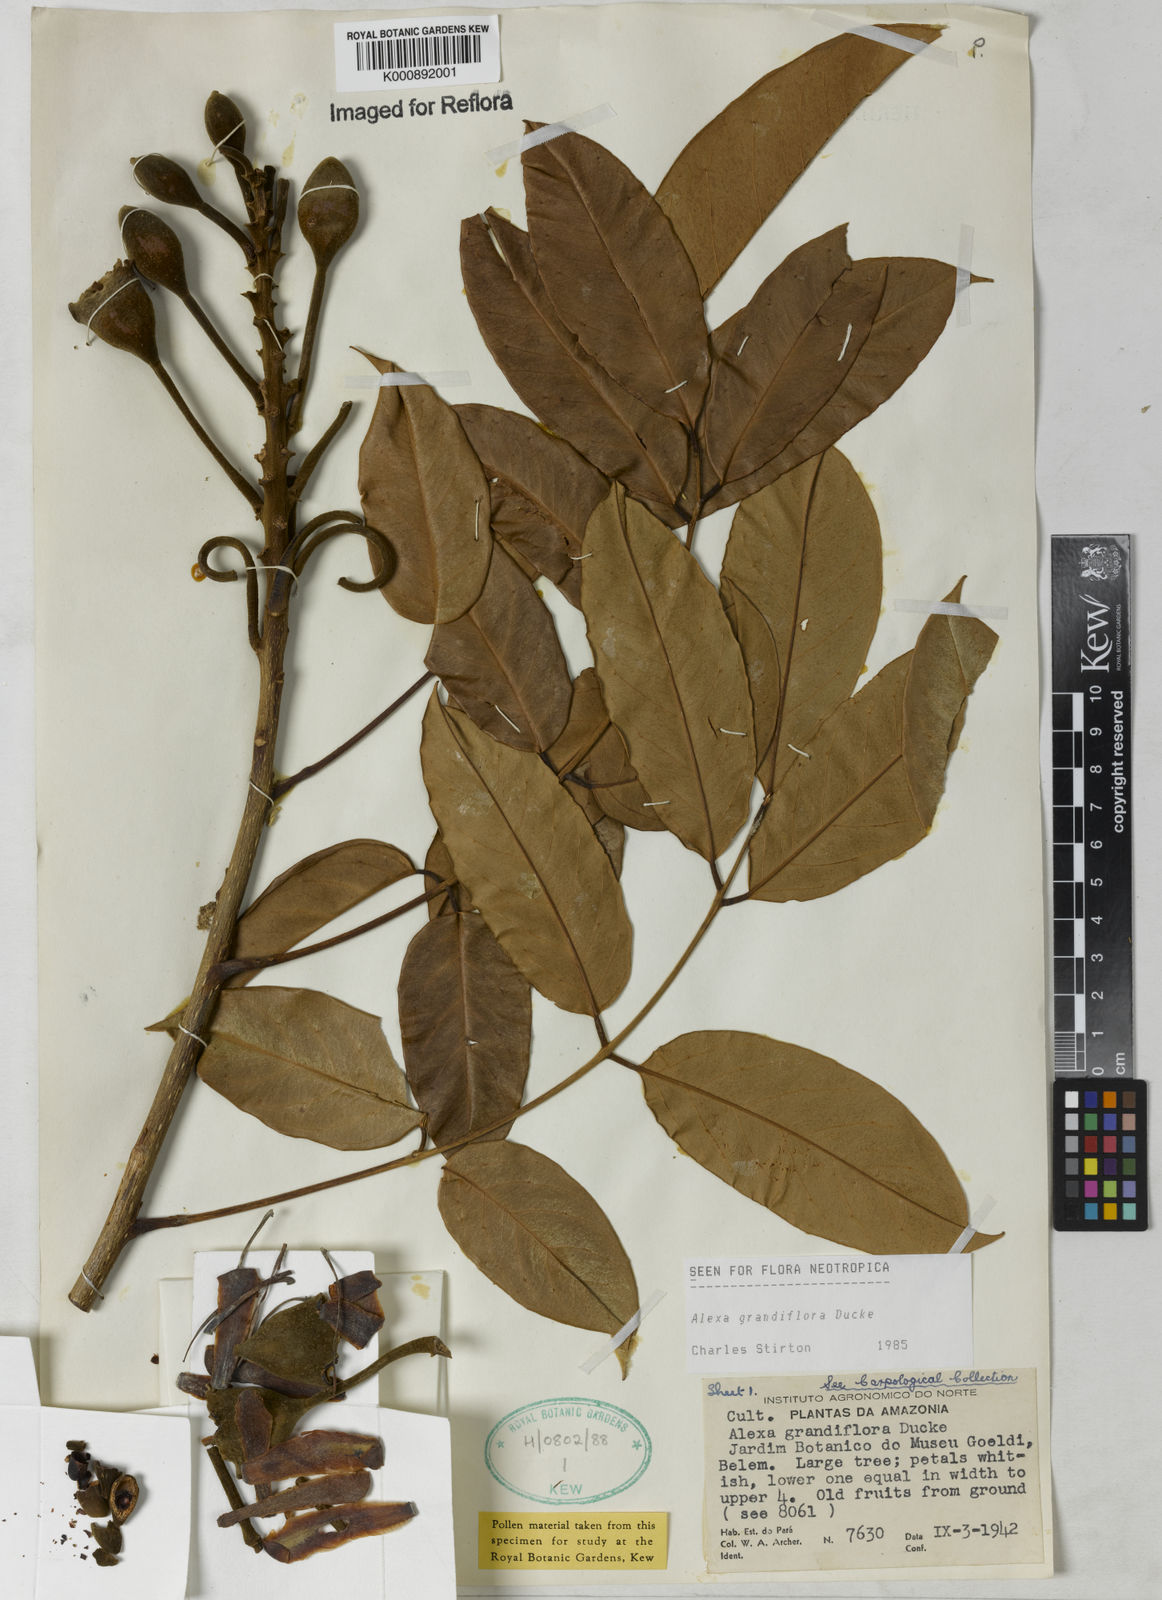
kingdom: Plantae
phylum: Tracheophyta
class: Magnoliopsida
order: Fabales
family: Fabaceae
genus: Alexa
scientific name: Alexa grandiflora
